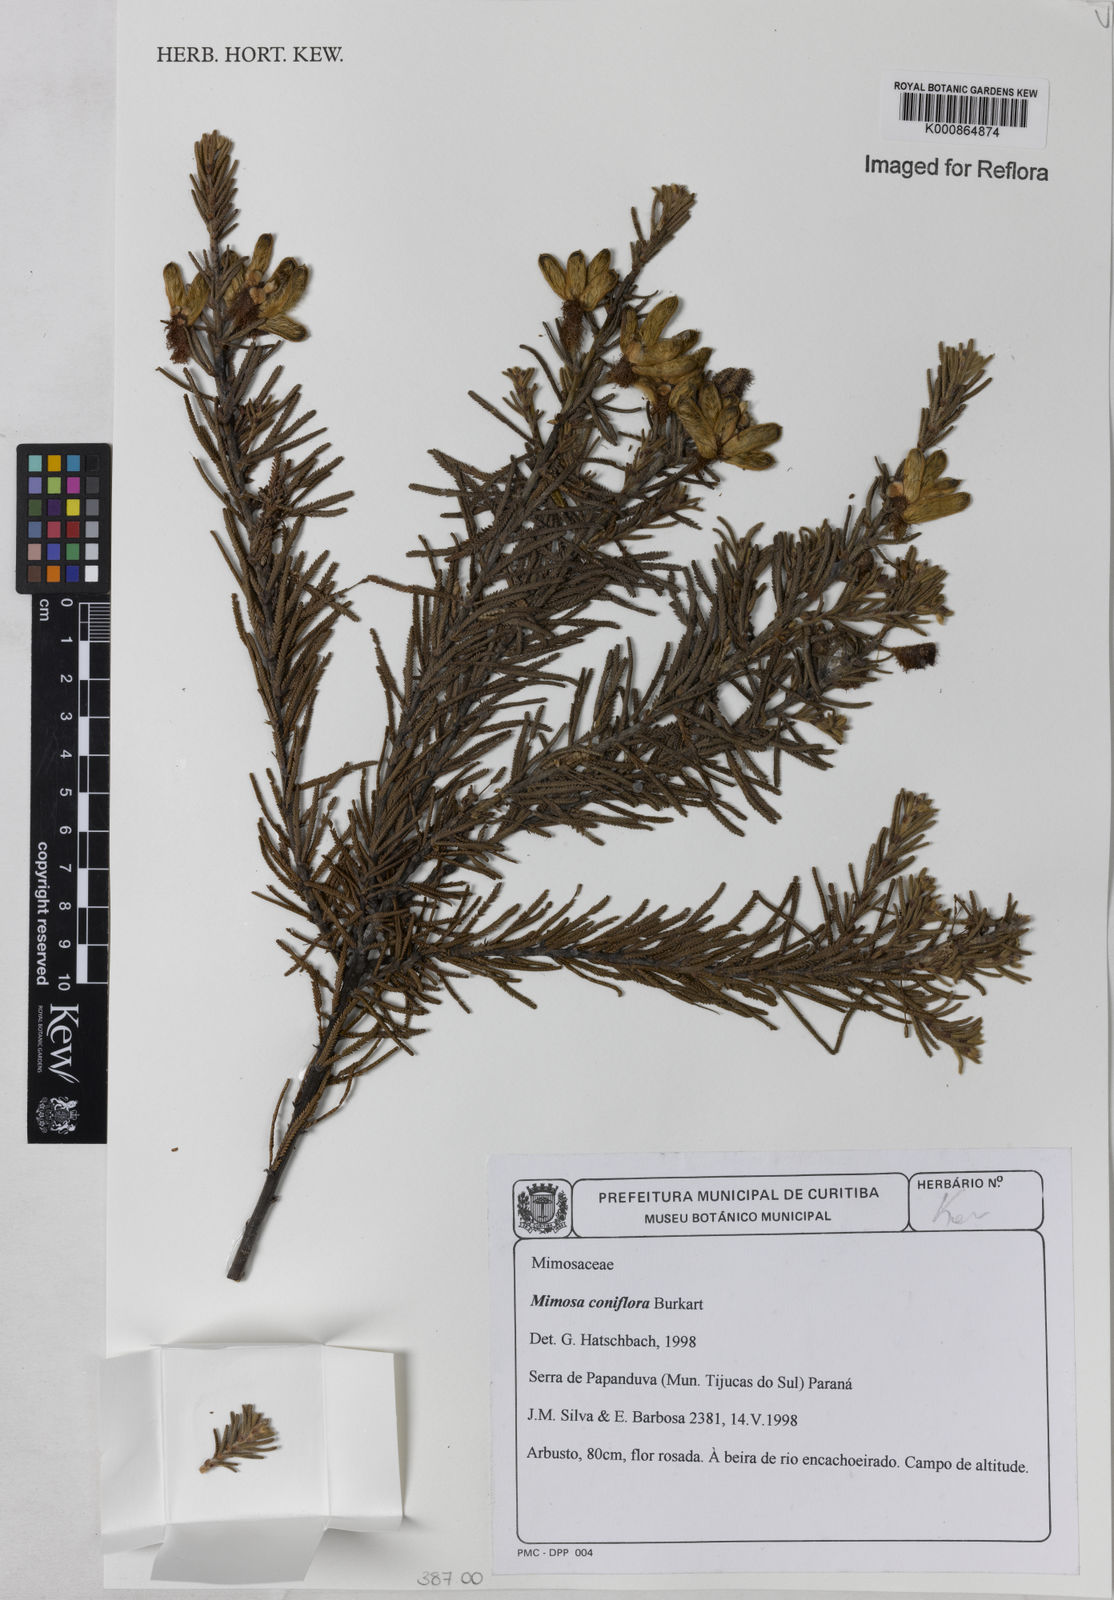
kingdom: Plantae
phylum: Tracheophyta
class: Magnoliopsida
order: Fabales
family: Fabaceae
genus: Mimosa
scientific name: Mimosa coniflora
